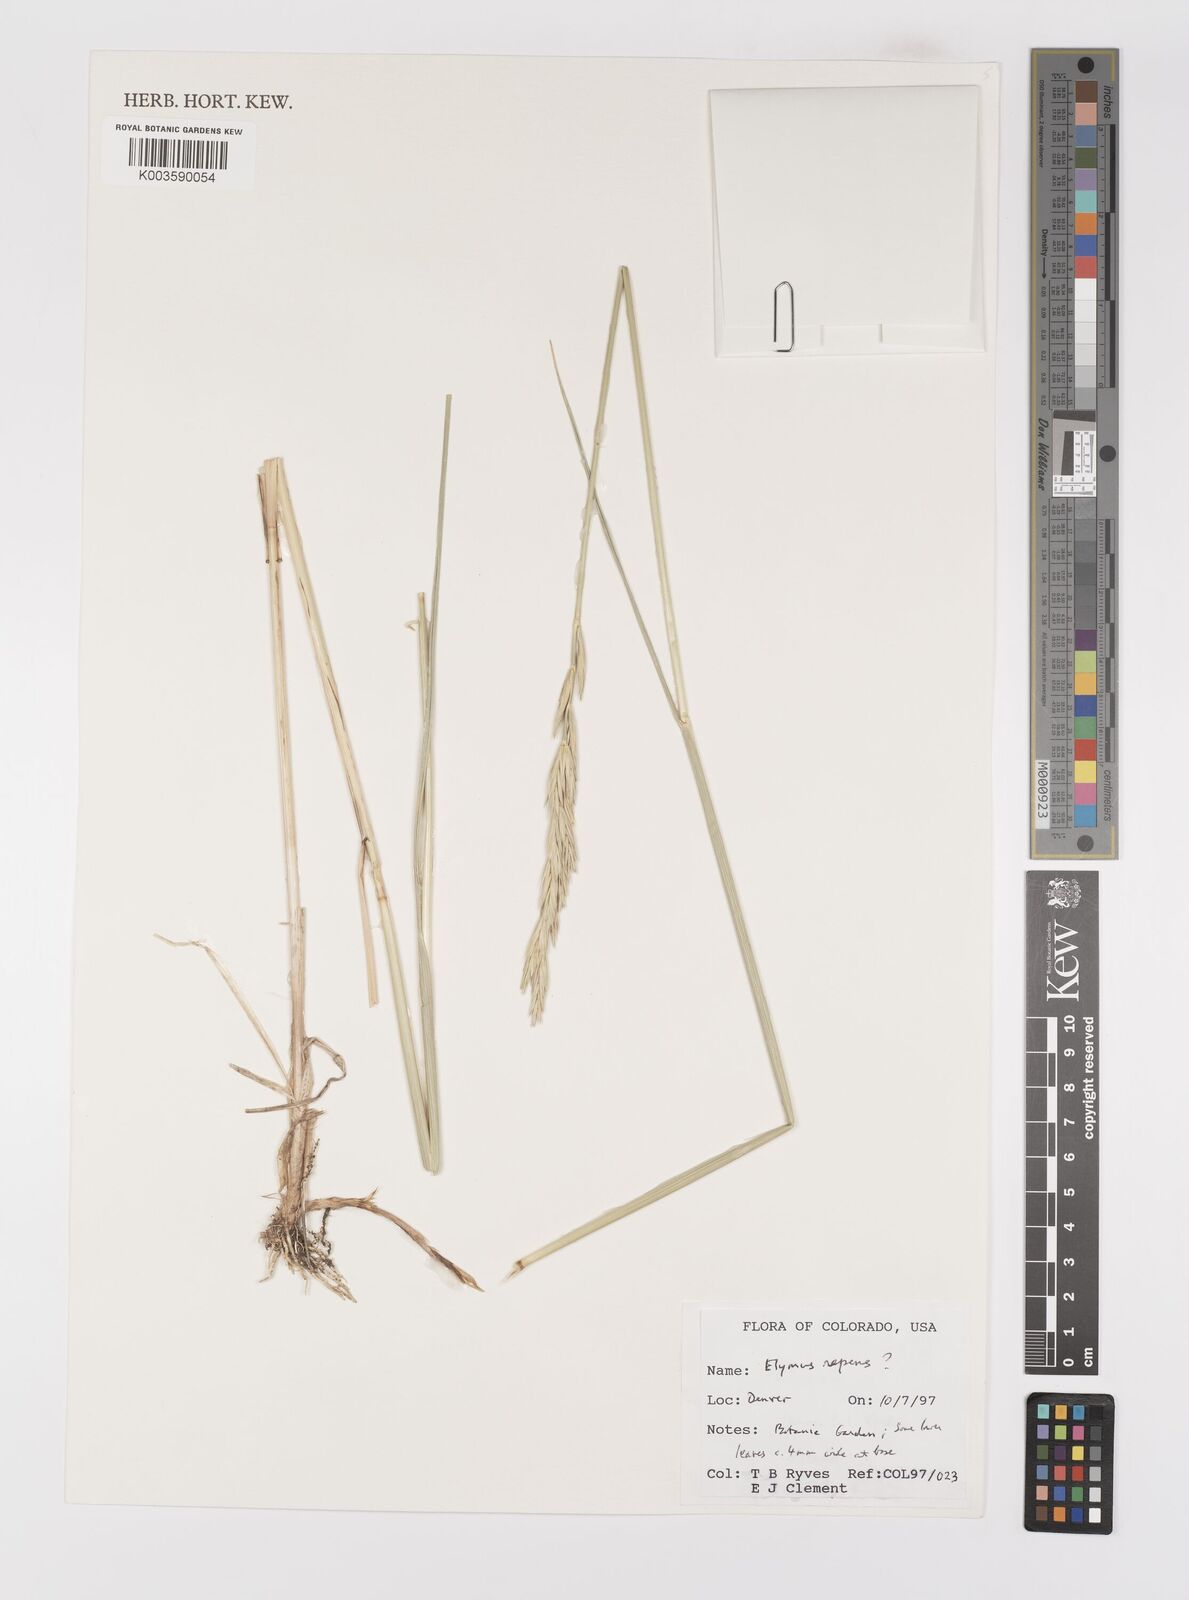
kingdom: Plantae
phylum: Tracheophyta
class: Liliopsida
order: Poales
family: Poaceae
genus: Elymus
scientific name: Elymus repens
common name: Quackgrass
